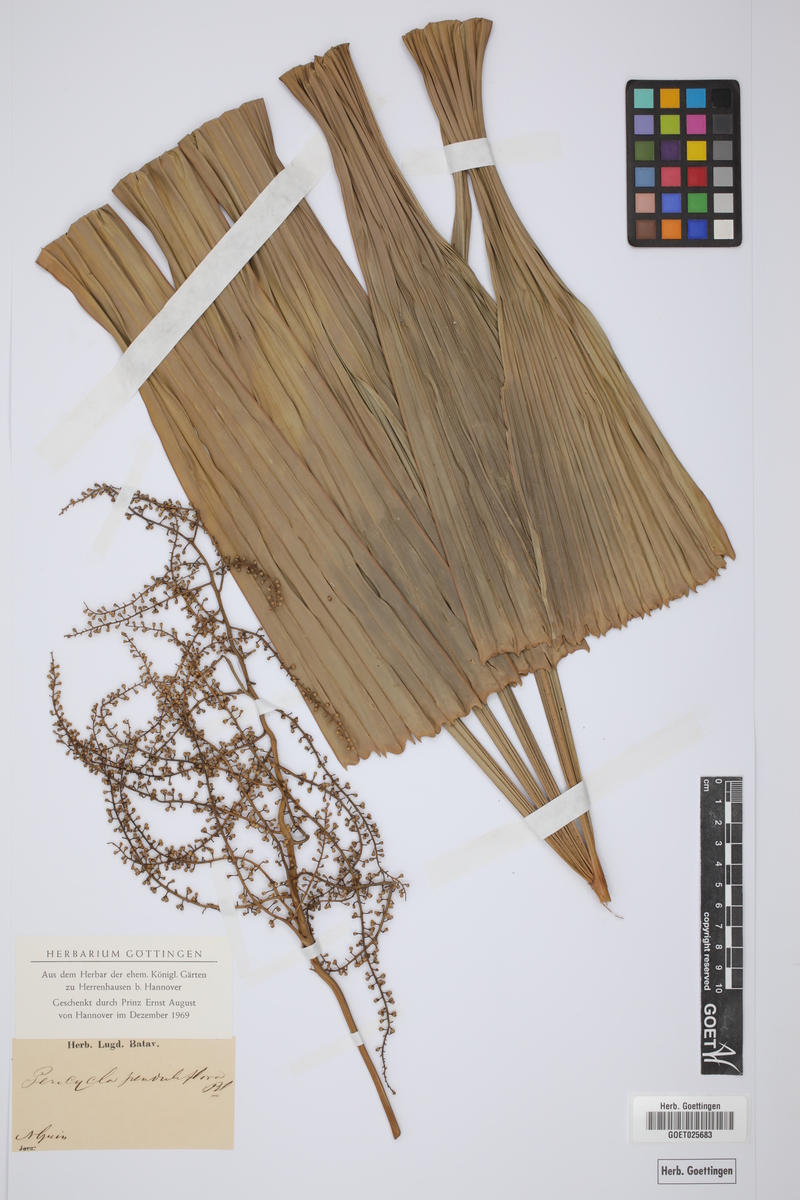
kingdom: Plantae
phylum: Tracheophyta
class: Liliopsida
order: Arecales
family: Arecaceae
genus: Licuala
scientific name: Licuala penduliflora
